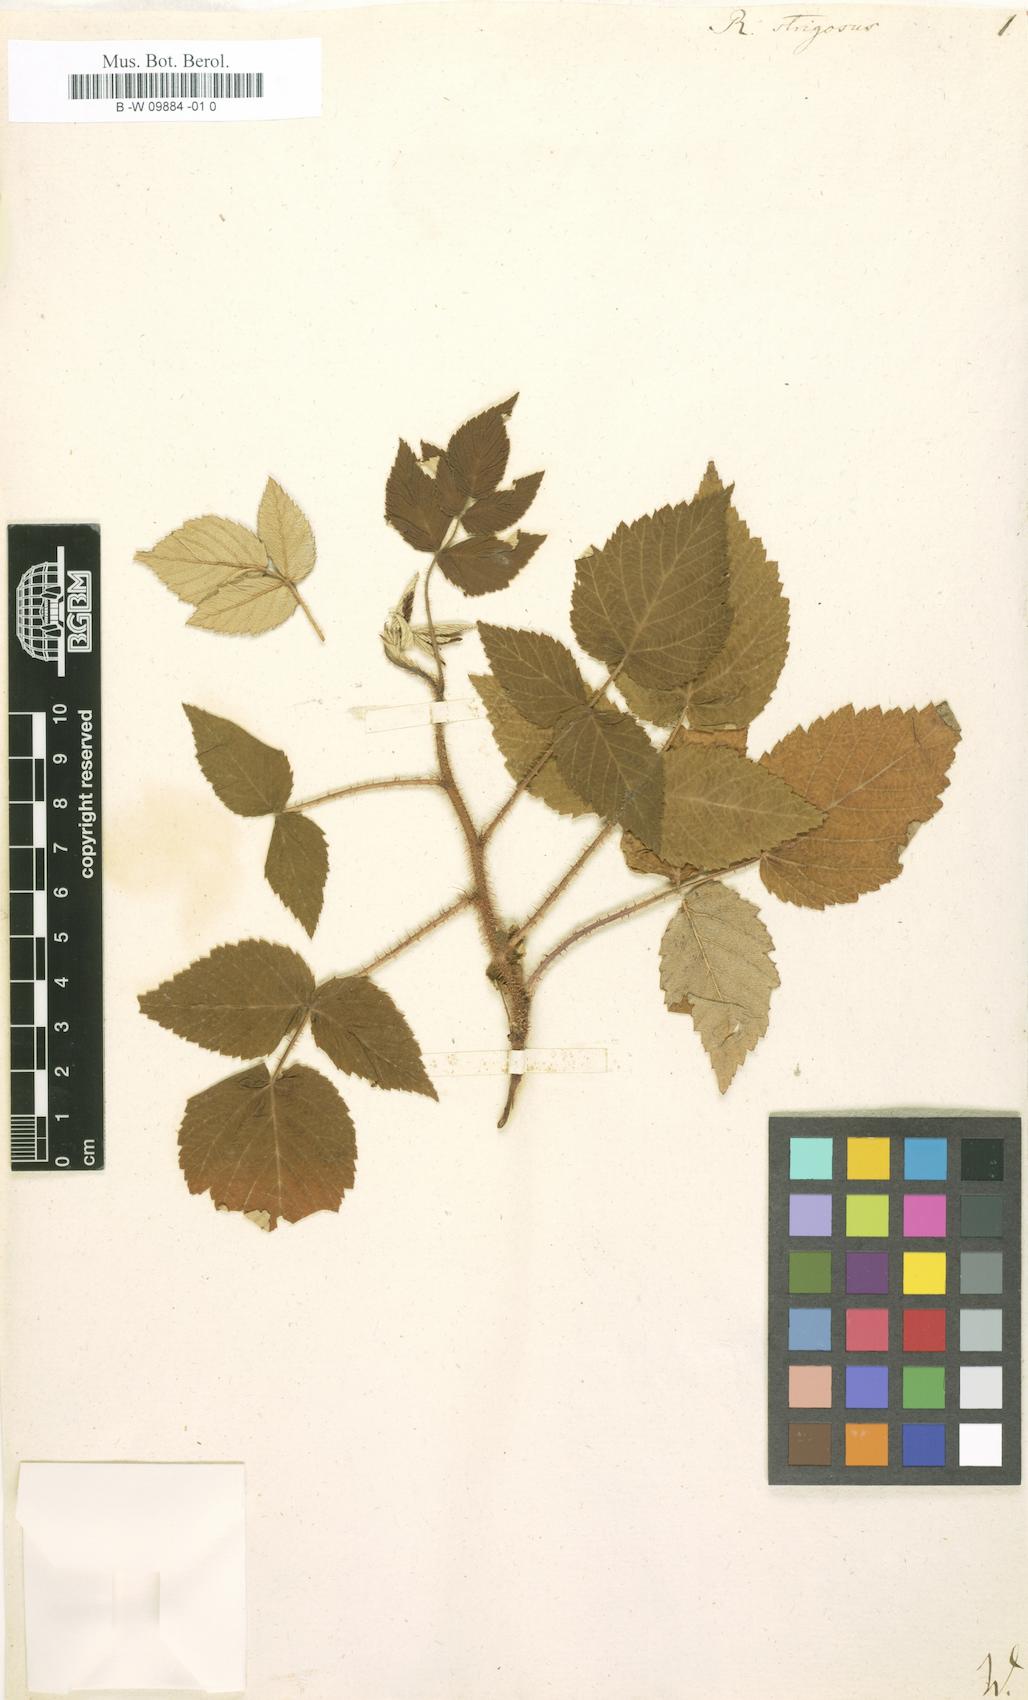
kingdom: Plantae
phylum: Tracheophyta
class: Magnoliopsida
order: Rosales
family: Rosaceae
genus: Rubus
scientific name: Rubus idaeus
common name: Raspberry
